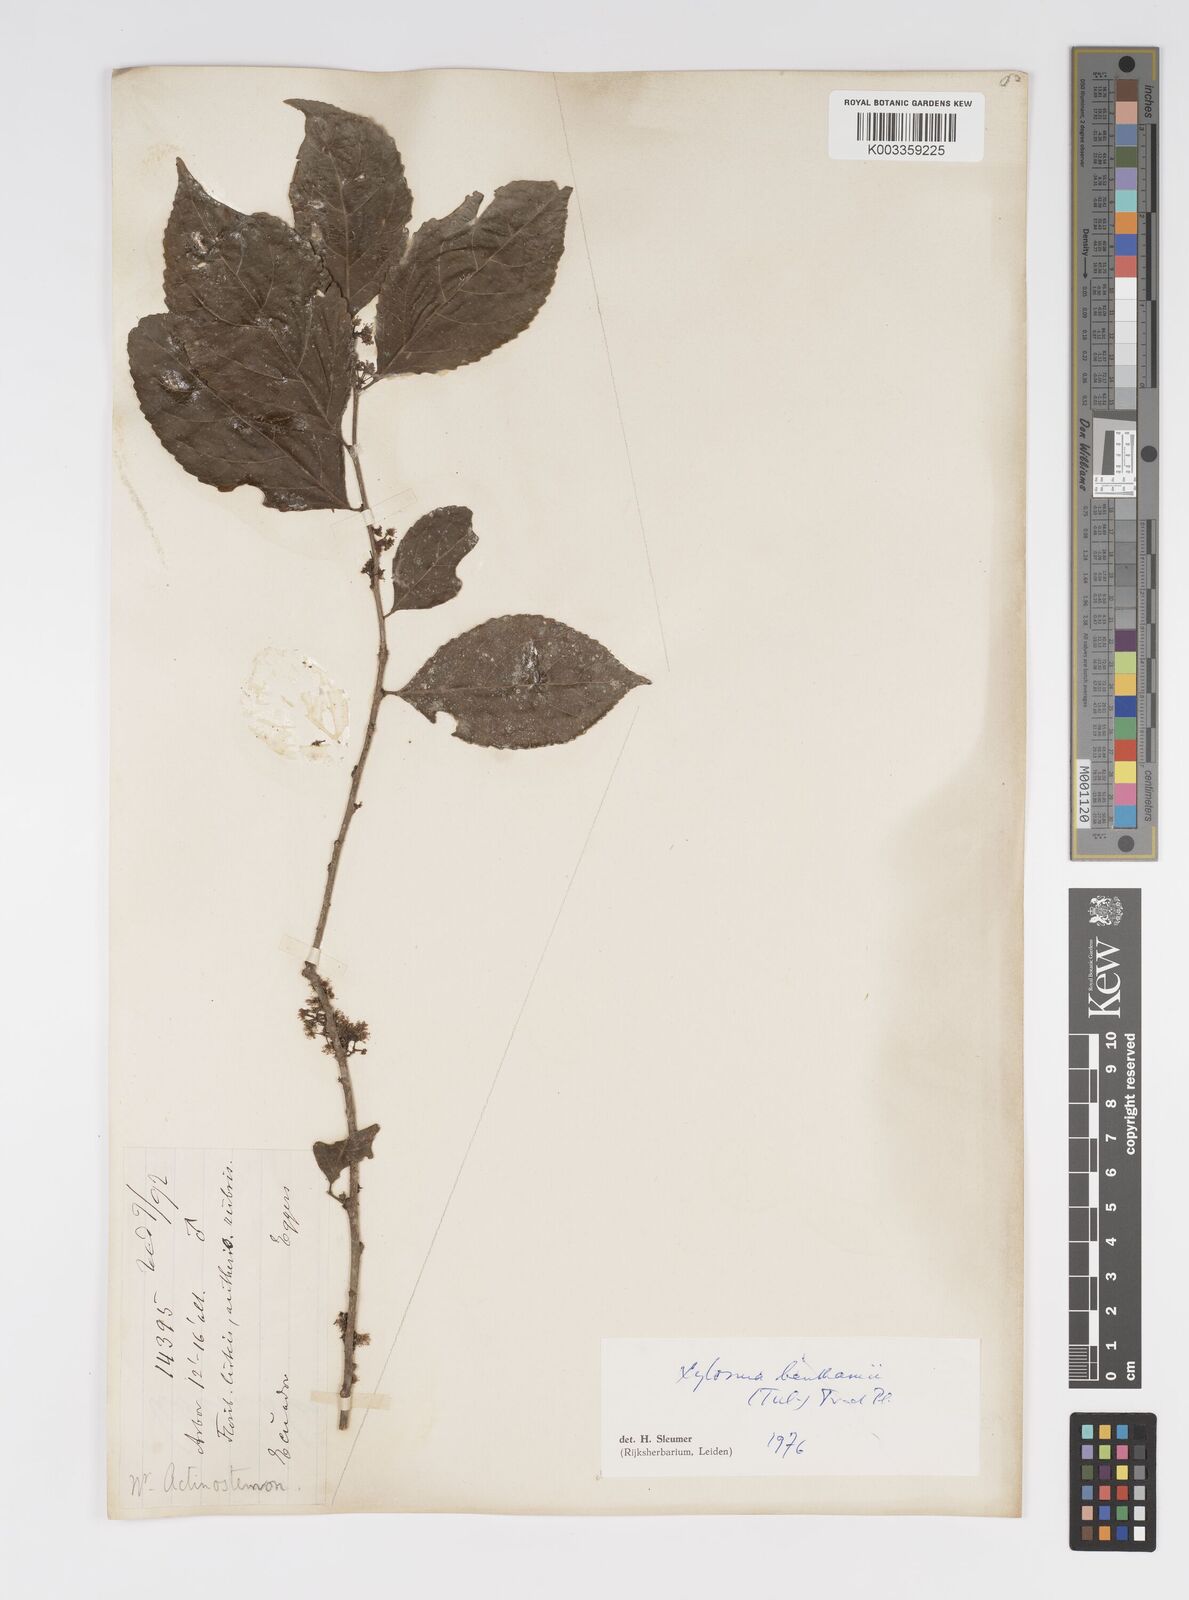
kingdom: Plantae
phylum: Tracheophyta
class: Magnoliopsida
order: Malpighiales
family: Salicaceae
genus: Xylosma
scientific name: Xylosma benthamii
